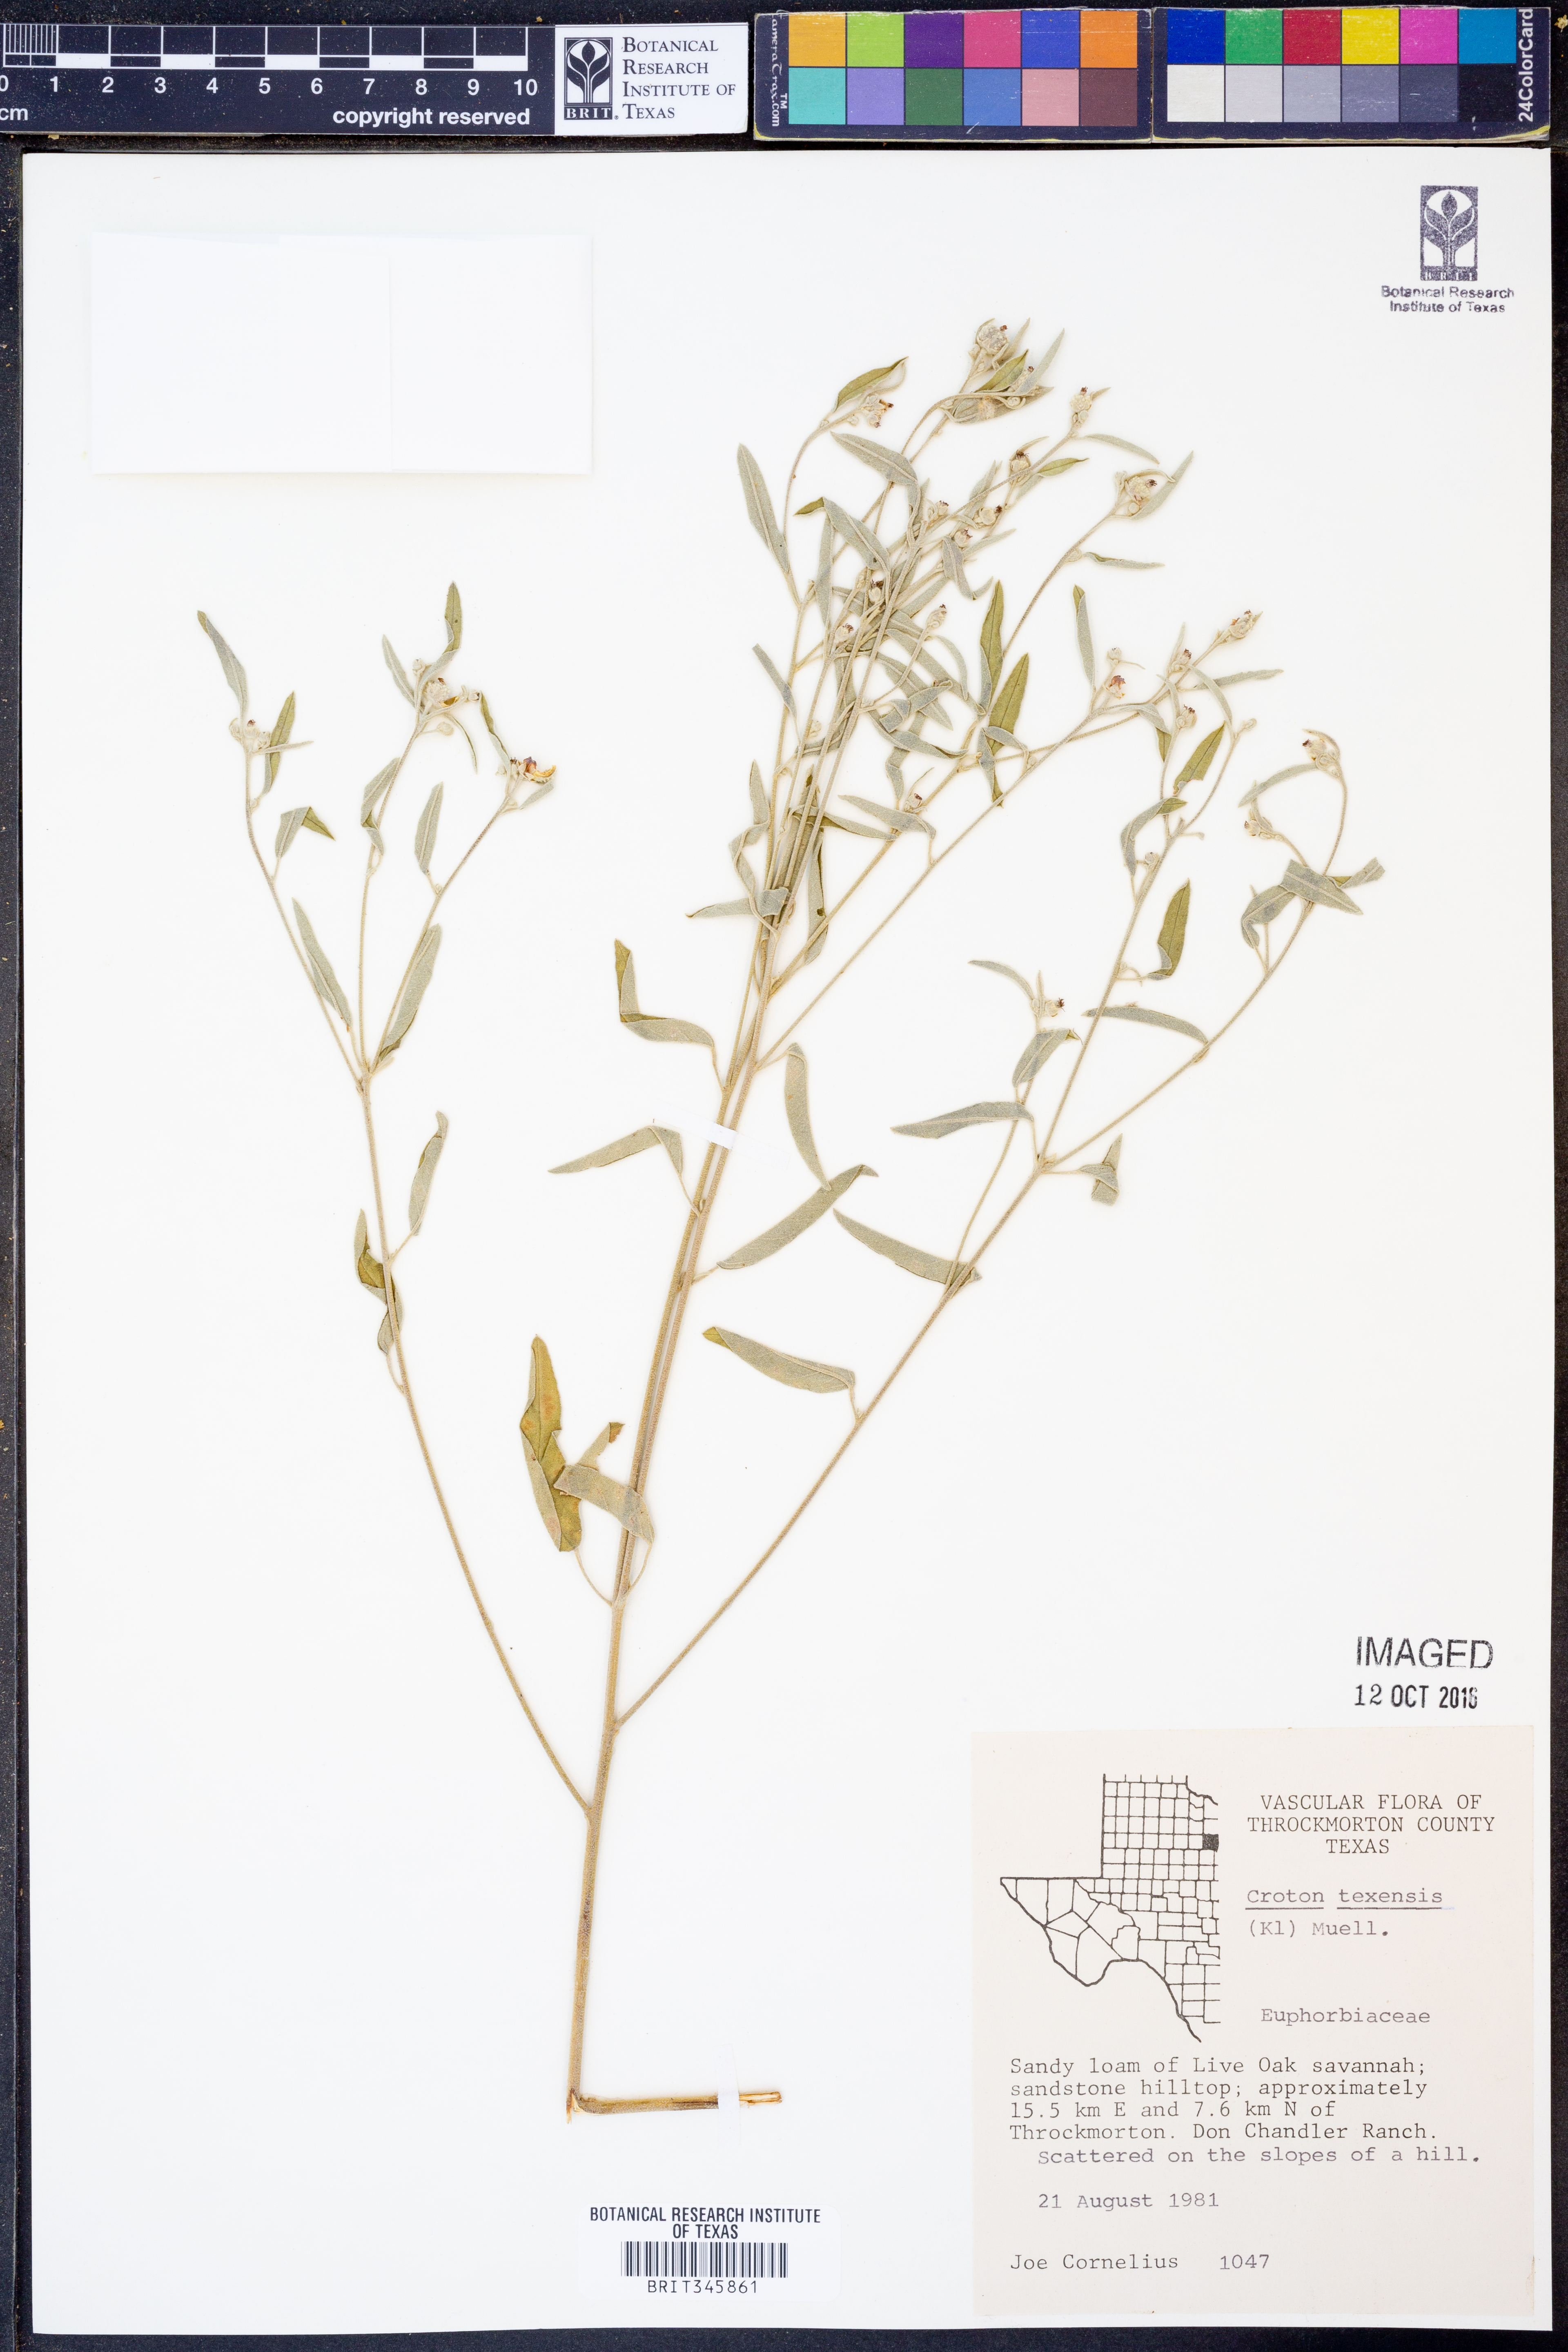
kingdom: Plantae
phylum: Tracheophyta
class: Magnoliopsida
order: Malpighiales
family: Euphorbiaceae
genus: Croton
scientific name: Croton texensis
